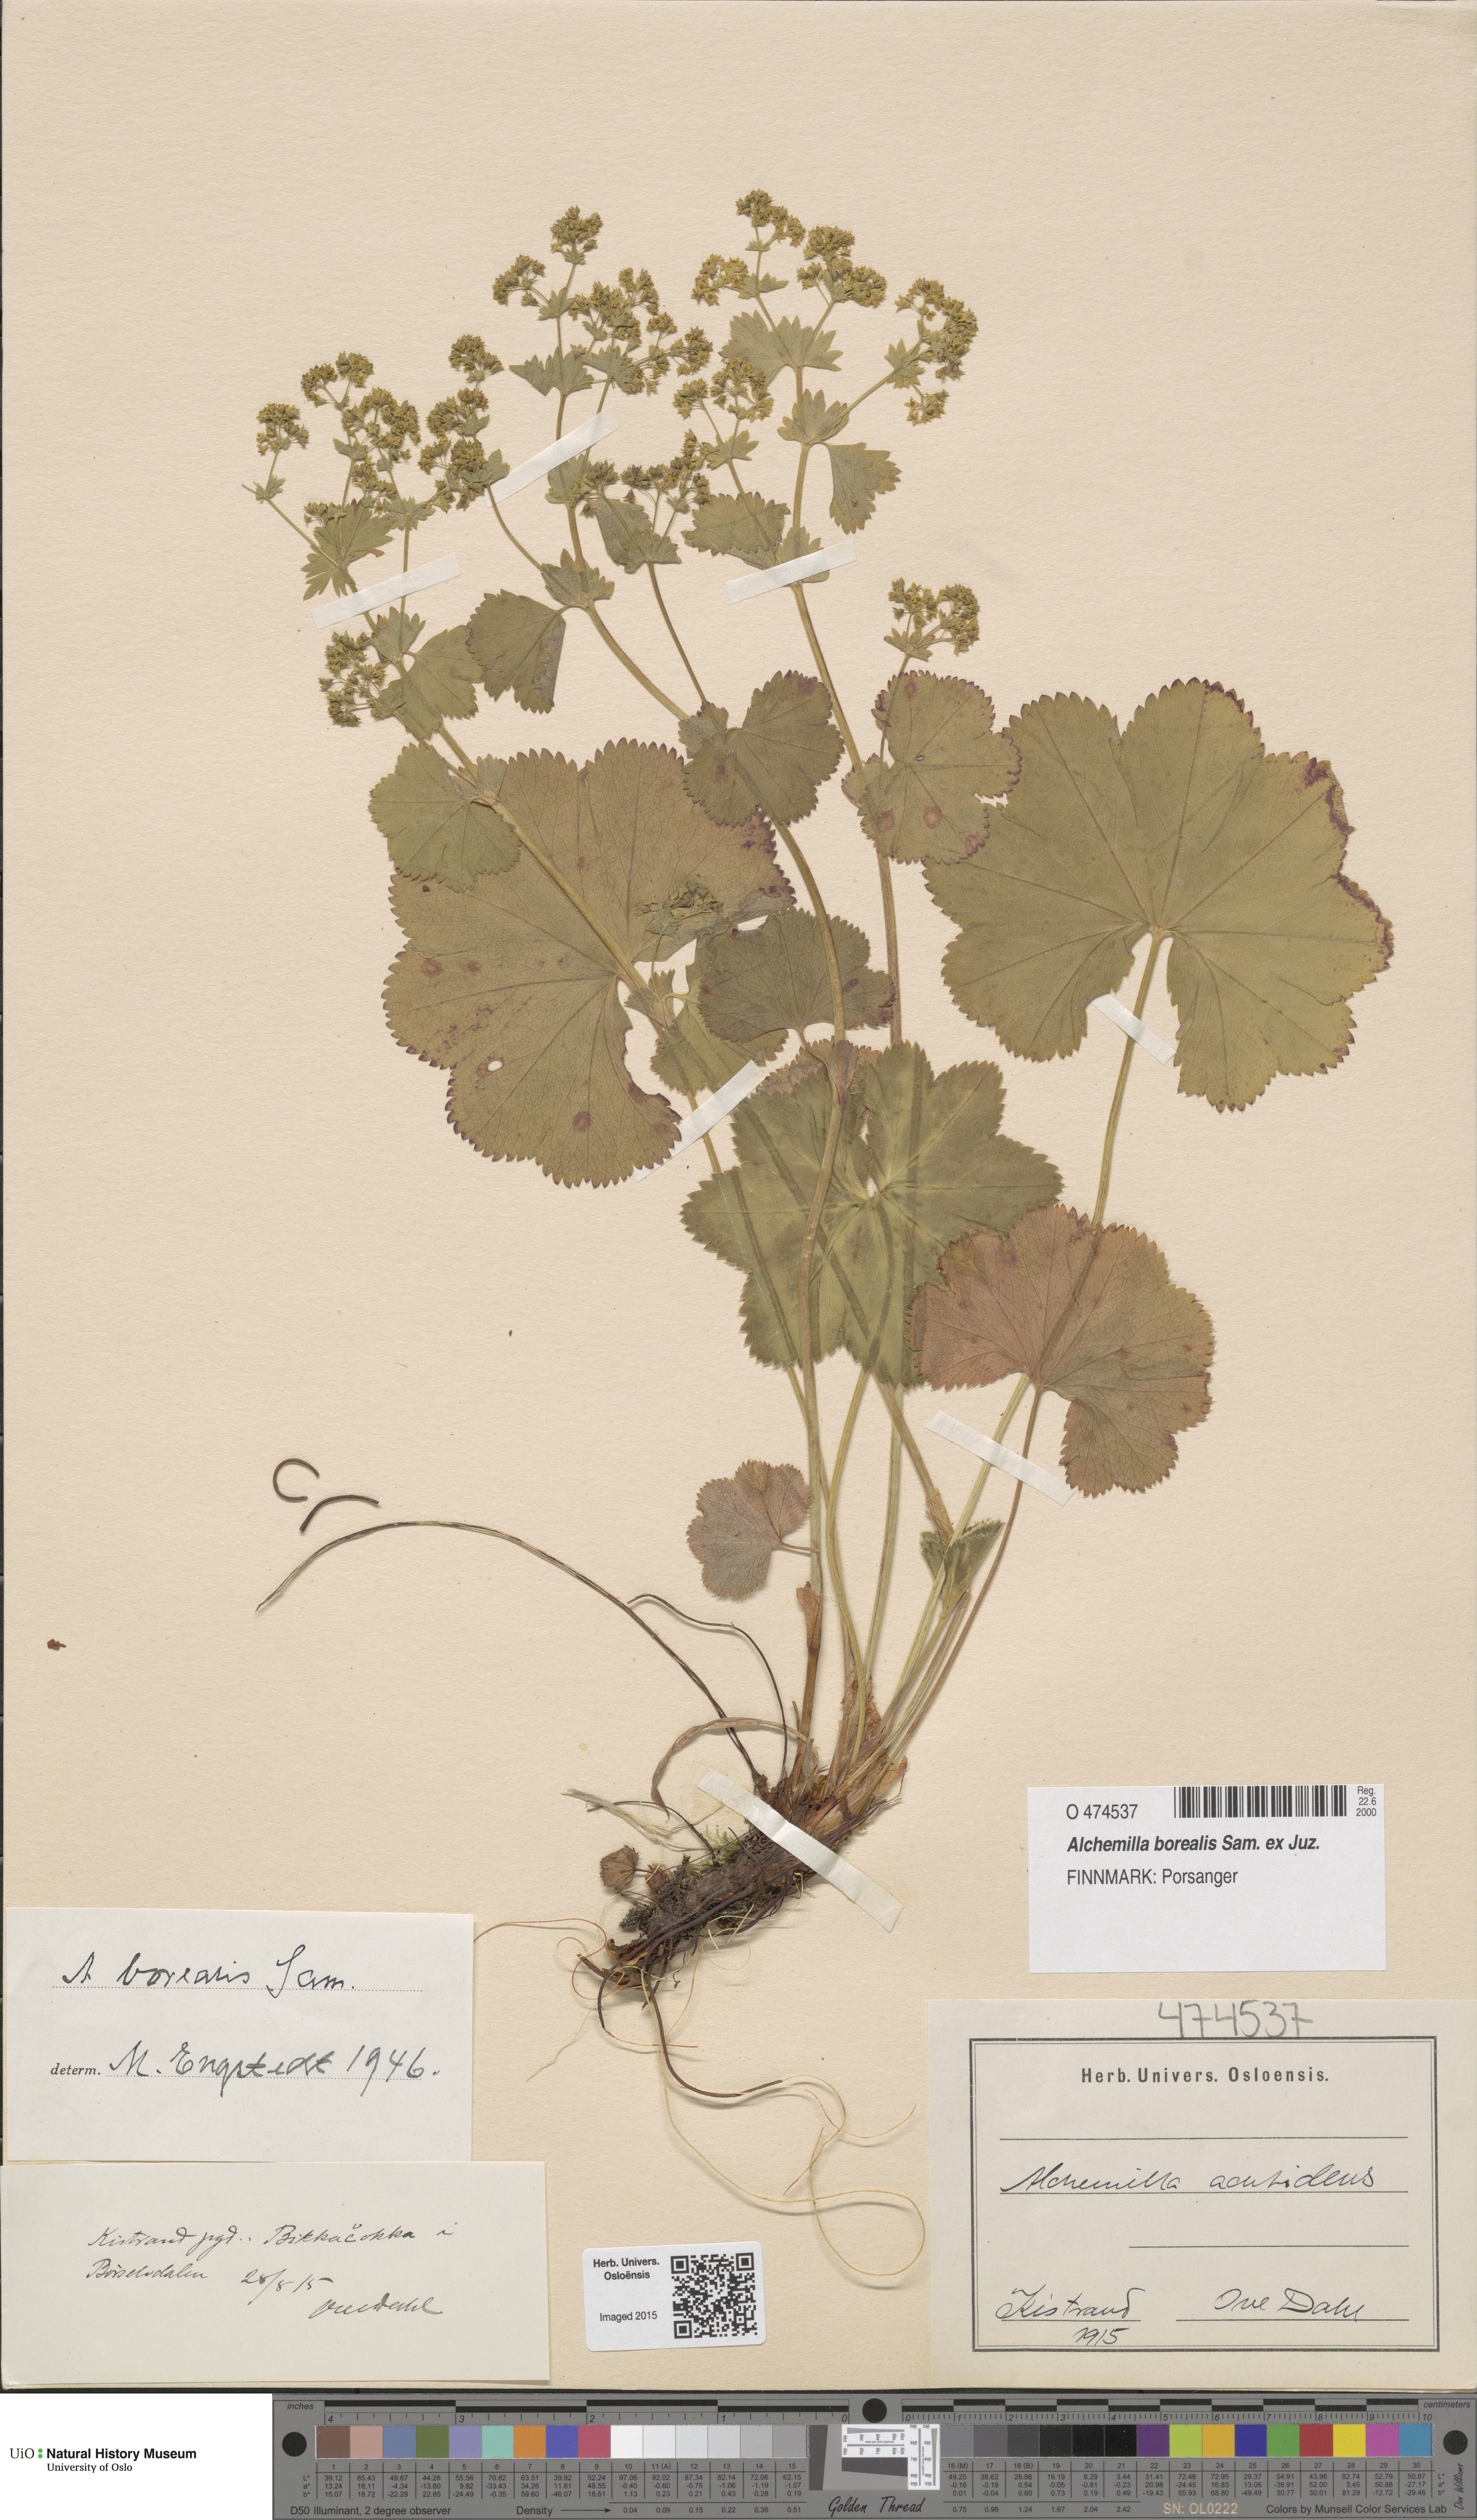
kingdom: Plantae
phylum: Tracheophyta
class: Magnoliopsida
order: Rosales
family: Rosaceae
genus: Alchemilla
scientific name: Alchemilla borealis
